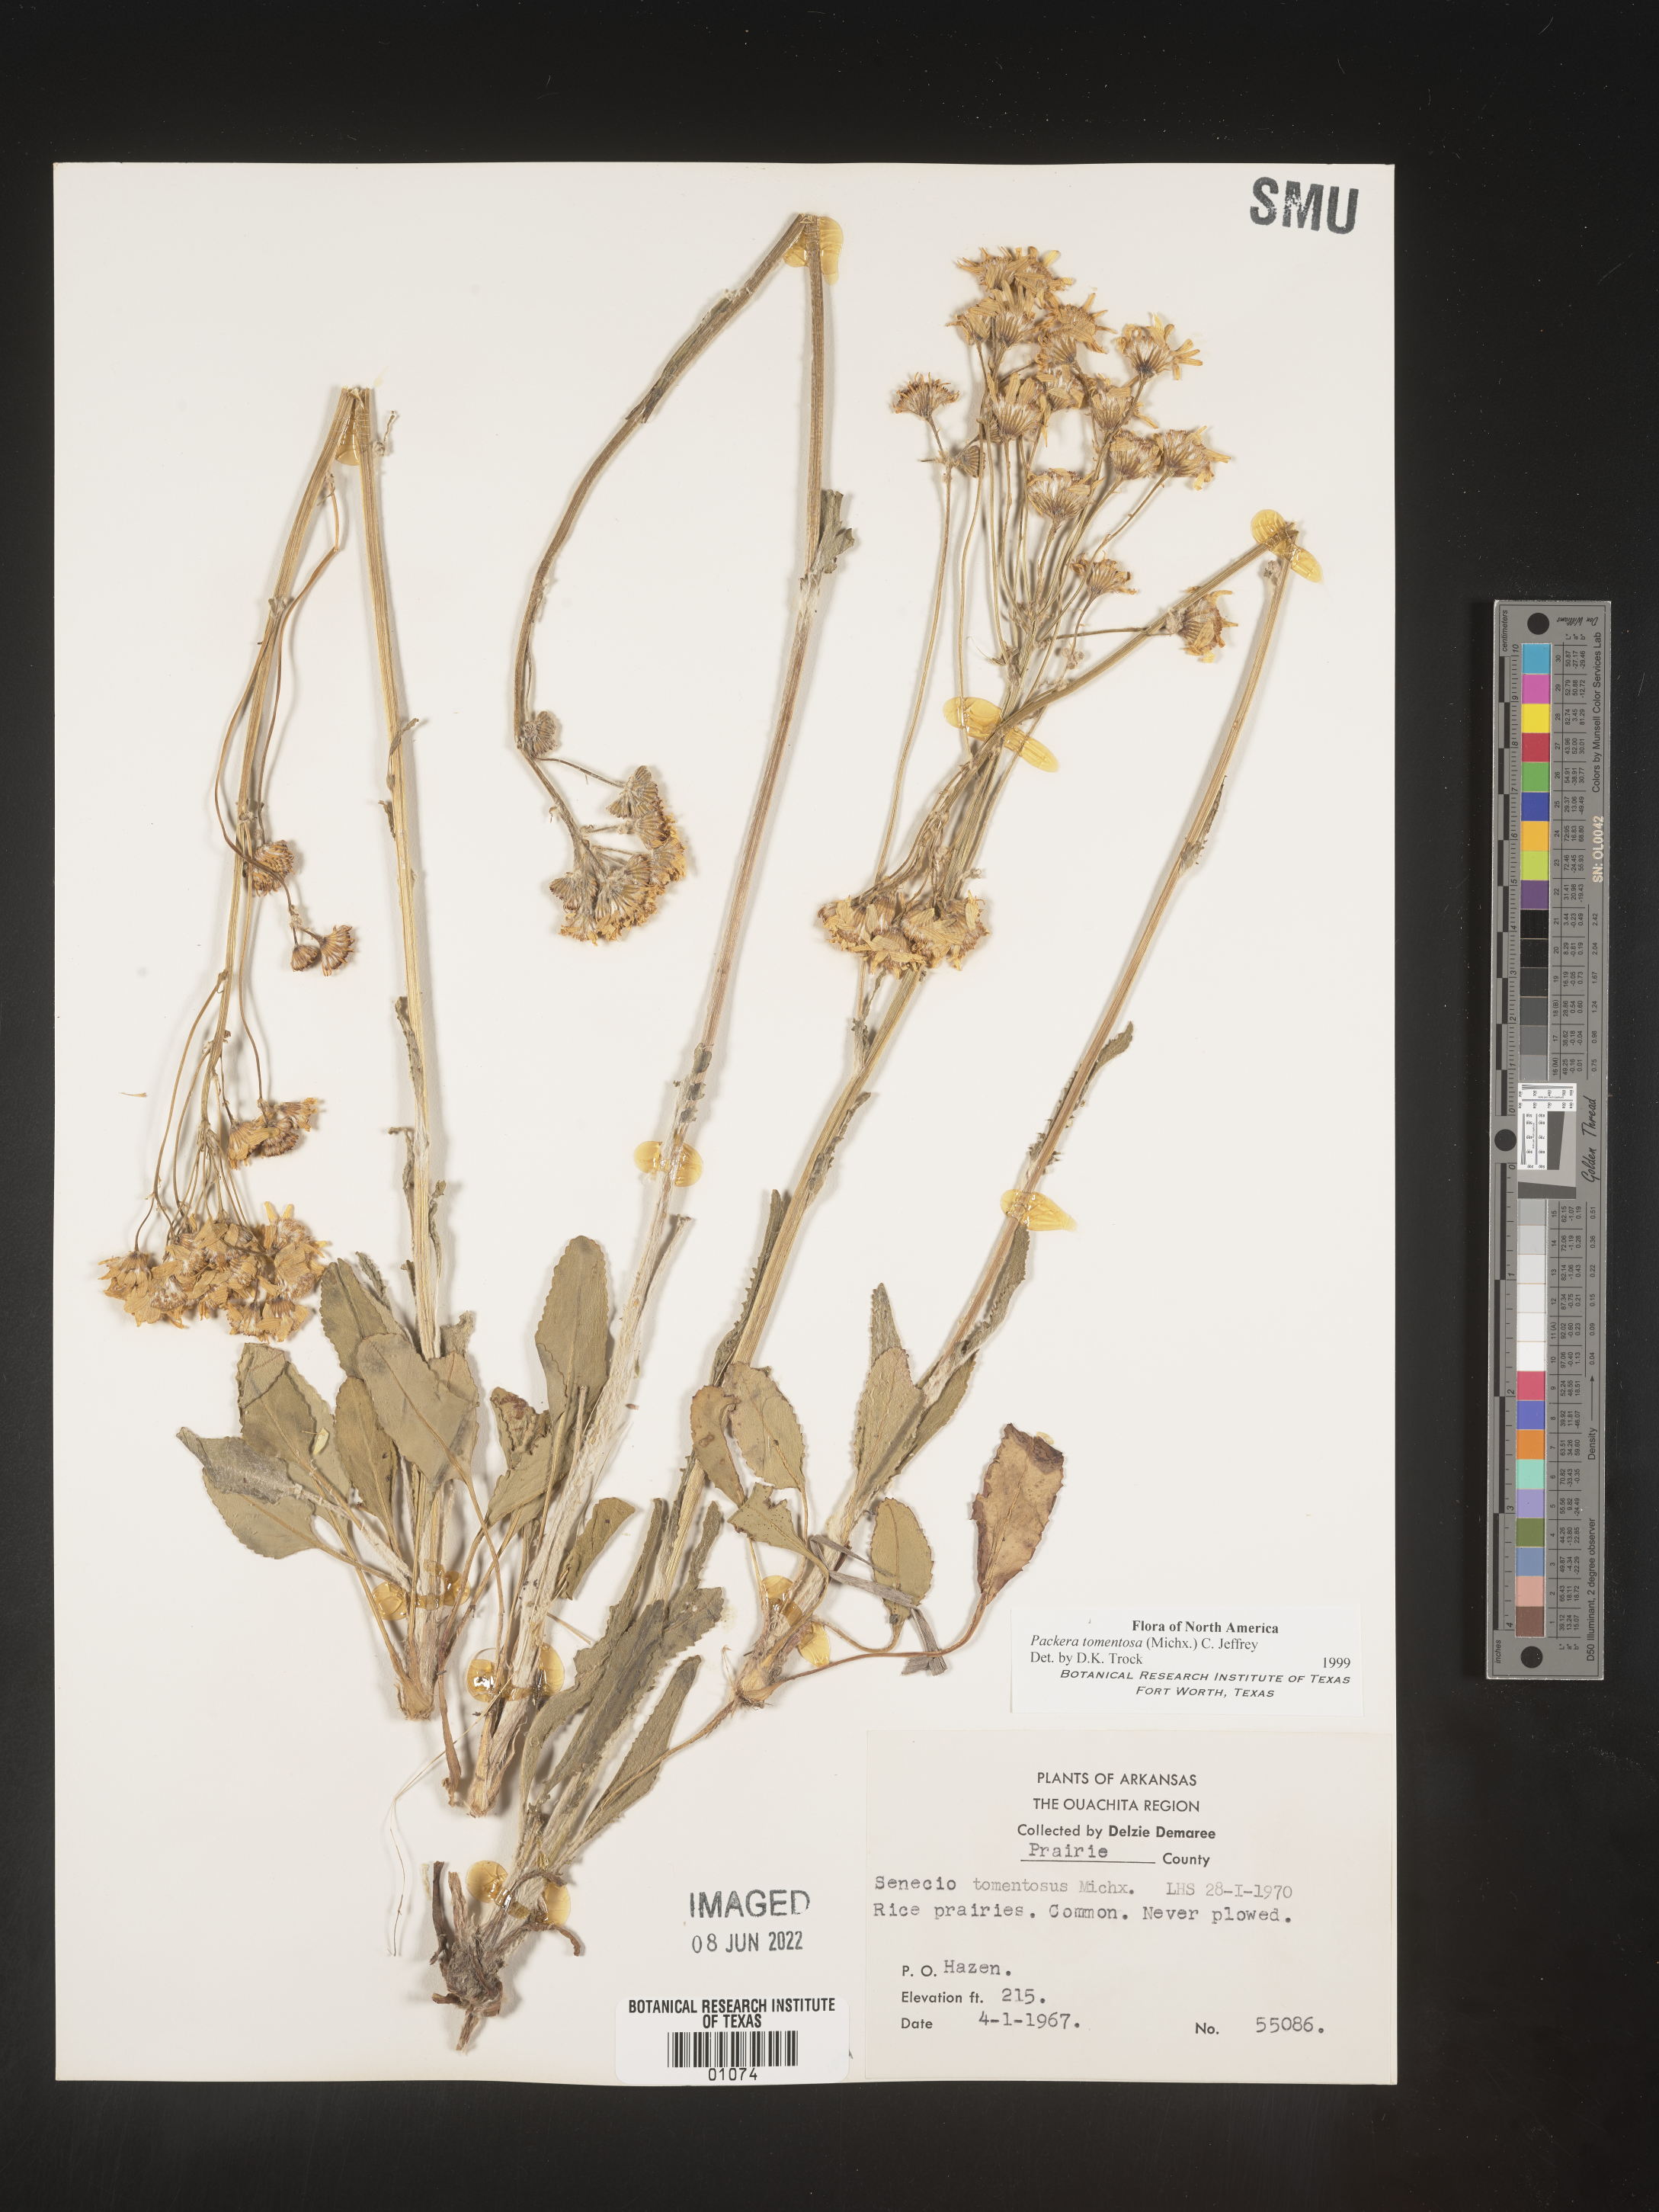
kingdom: Plantae
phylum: Tracheophyta
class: Magnoliopsida
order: Asterales
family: Asteraceae
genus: Packera
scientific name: Packera dubia
